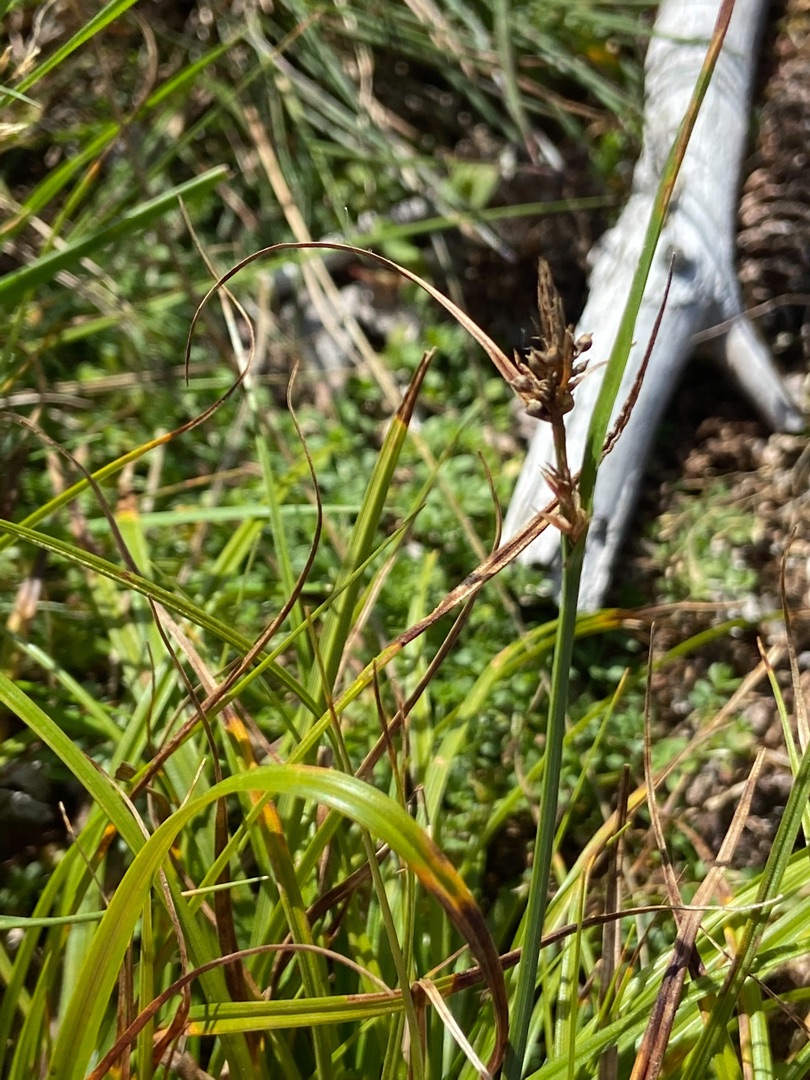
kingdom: Plantae
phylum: Tracheophyta
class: Liliopsida
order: Poales
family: Cyperaceae
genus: Carex
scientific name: Carex pilulifera
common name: Pille-star
